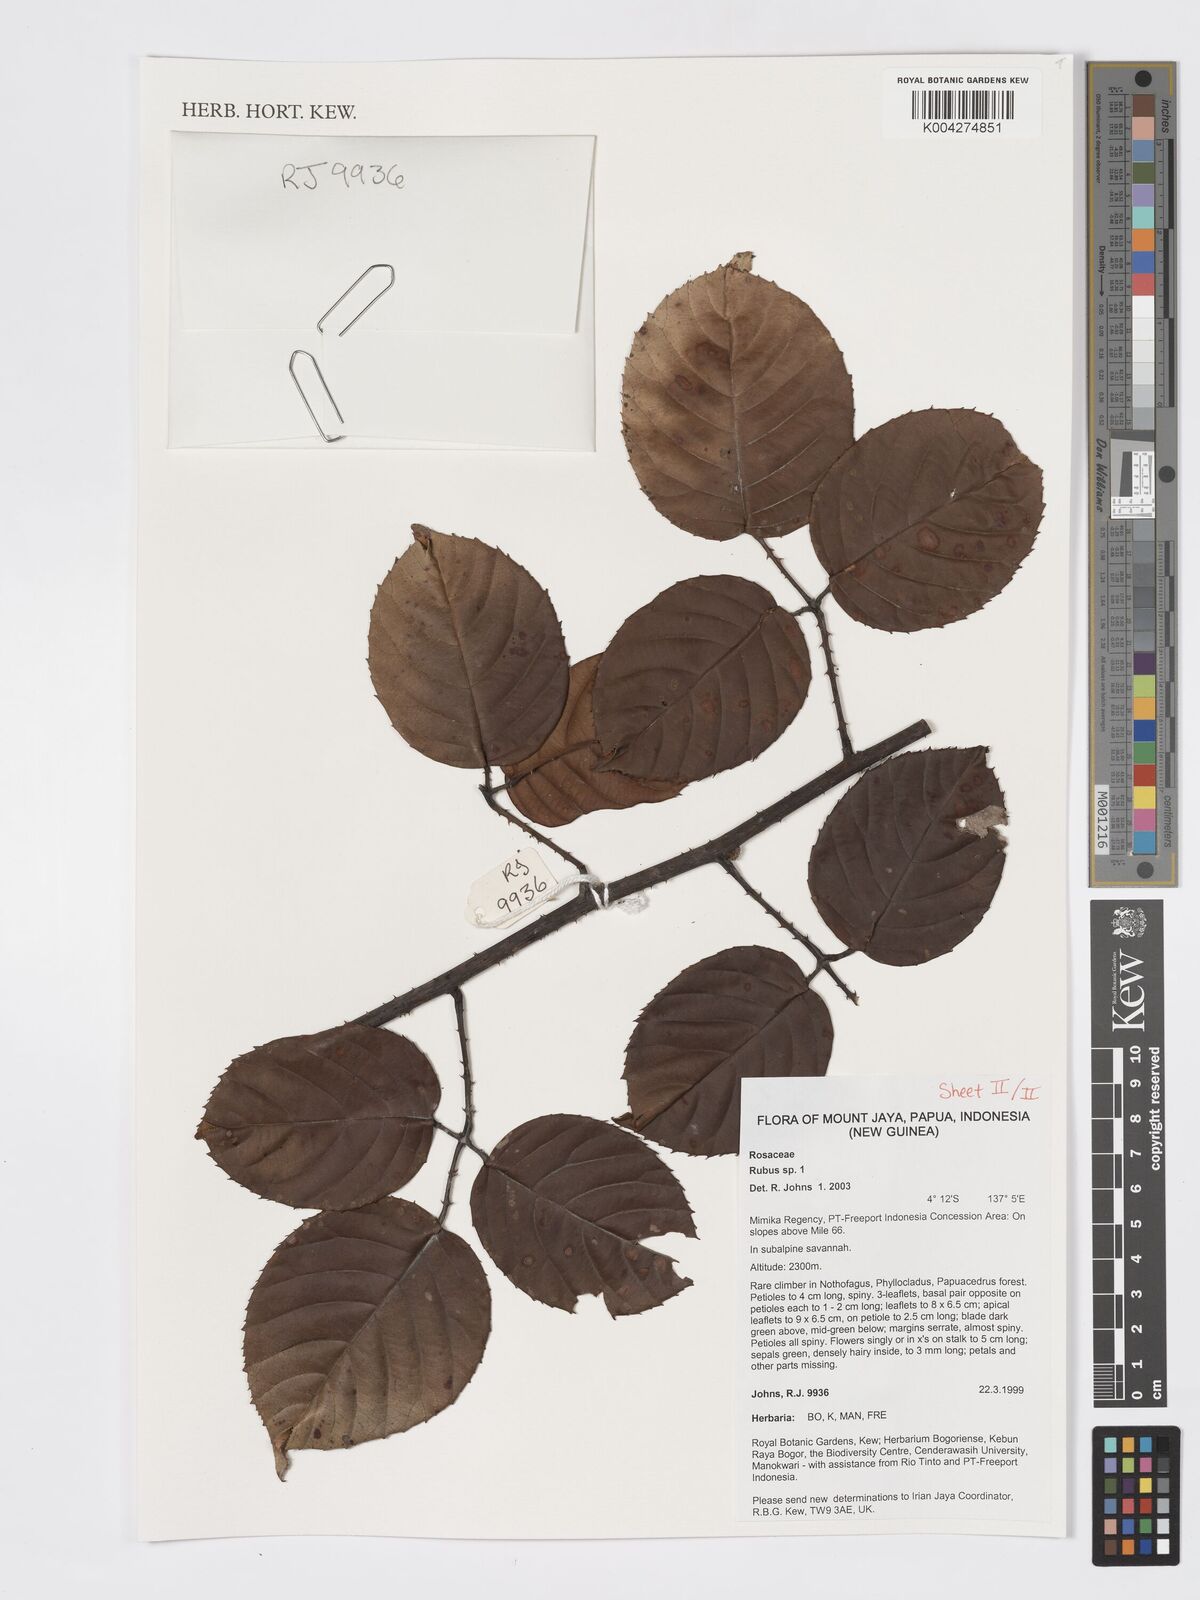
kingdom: Plantae
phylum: Tracheophyta
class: Magnoliopsida
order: Rosales
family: Rosaceae
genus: Rubus
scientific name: Rubus
